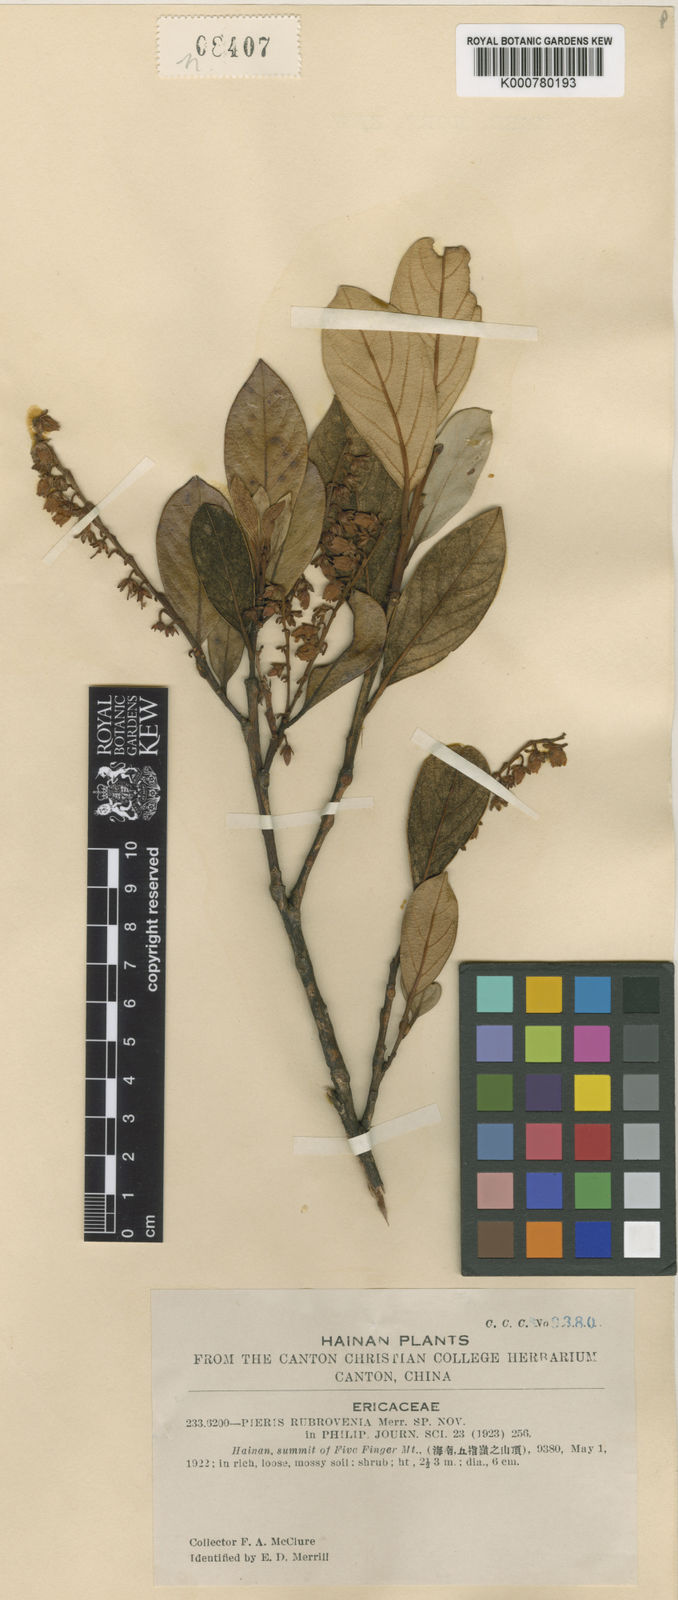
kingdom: Plantae
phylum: Tracheophyta
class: Magnoliopsida
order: Ericales
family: Ericaceae
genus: Lyonia
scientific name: Lyonia ovalifolia
